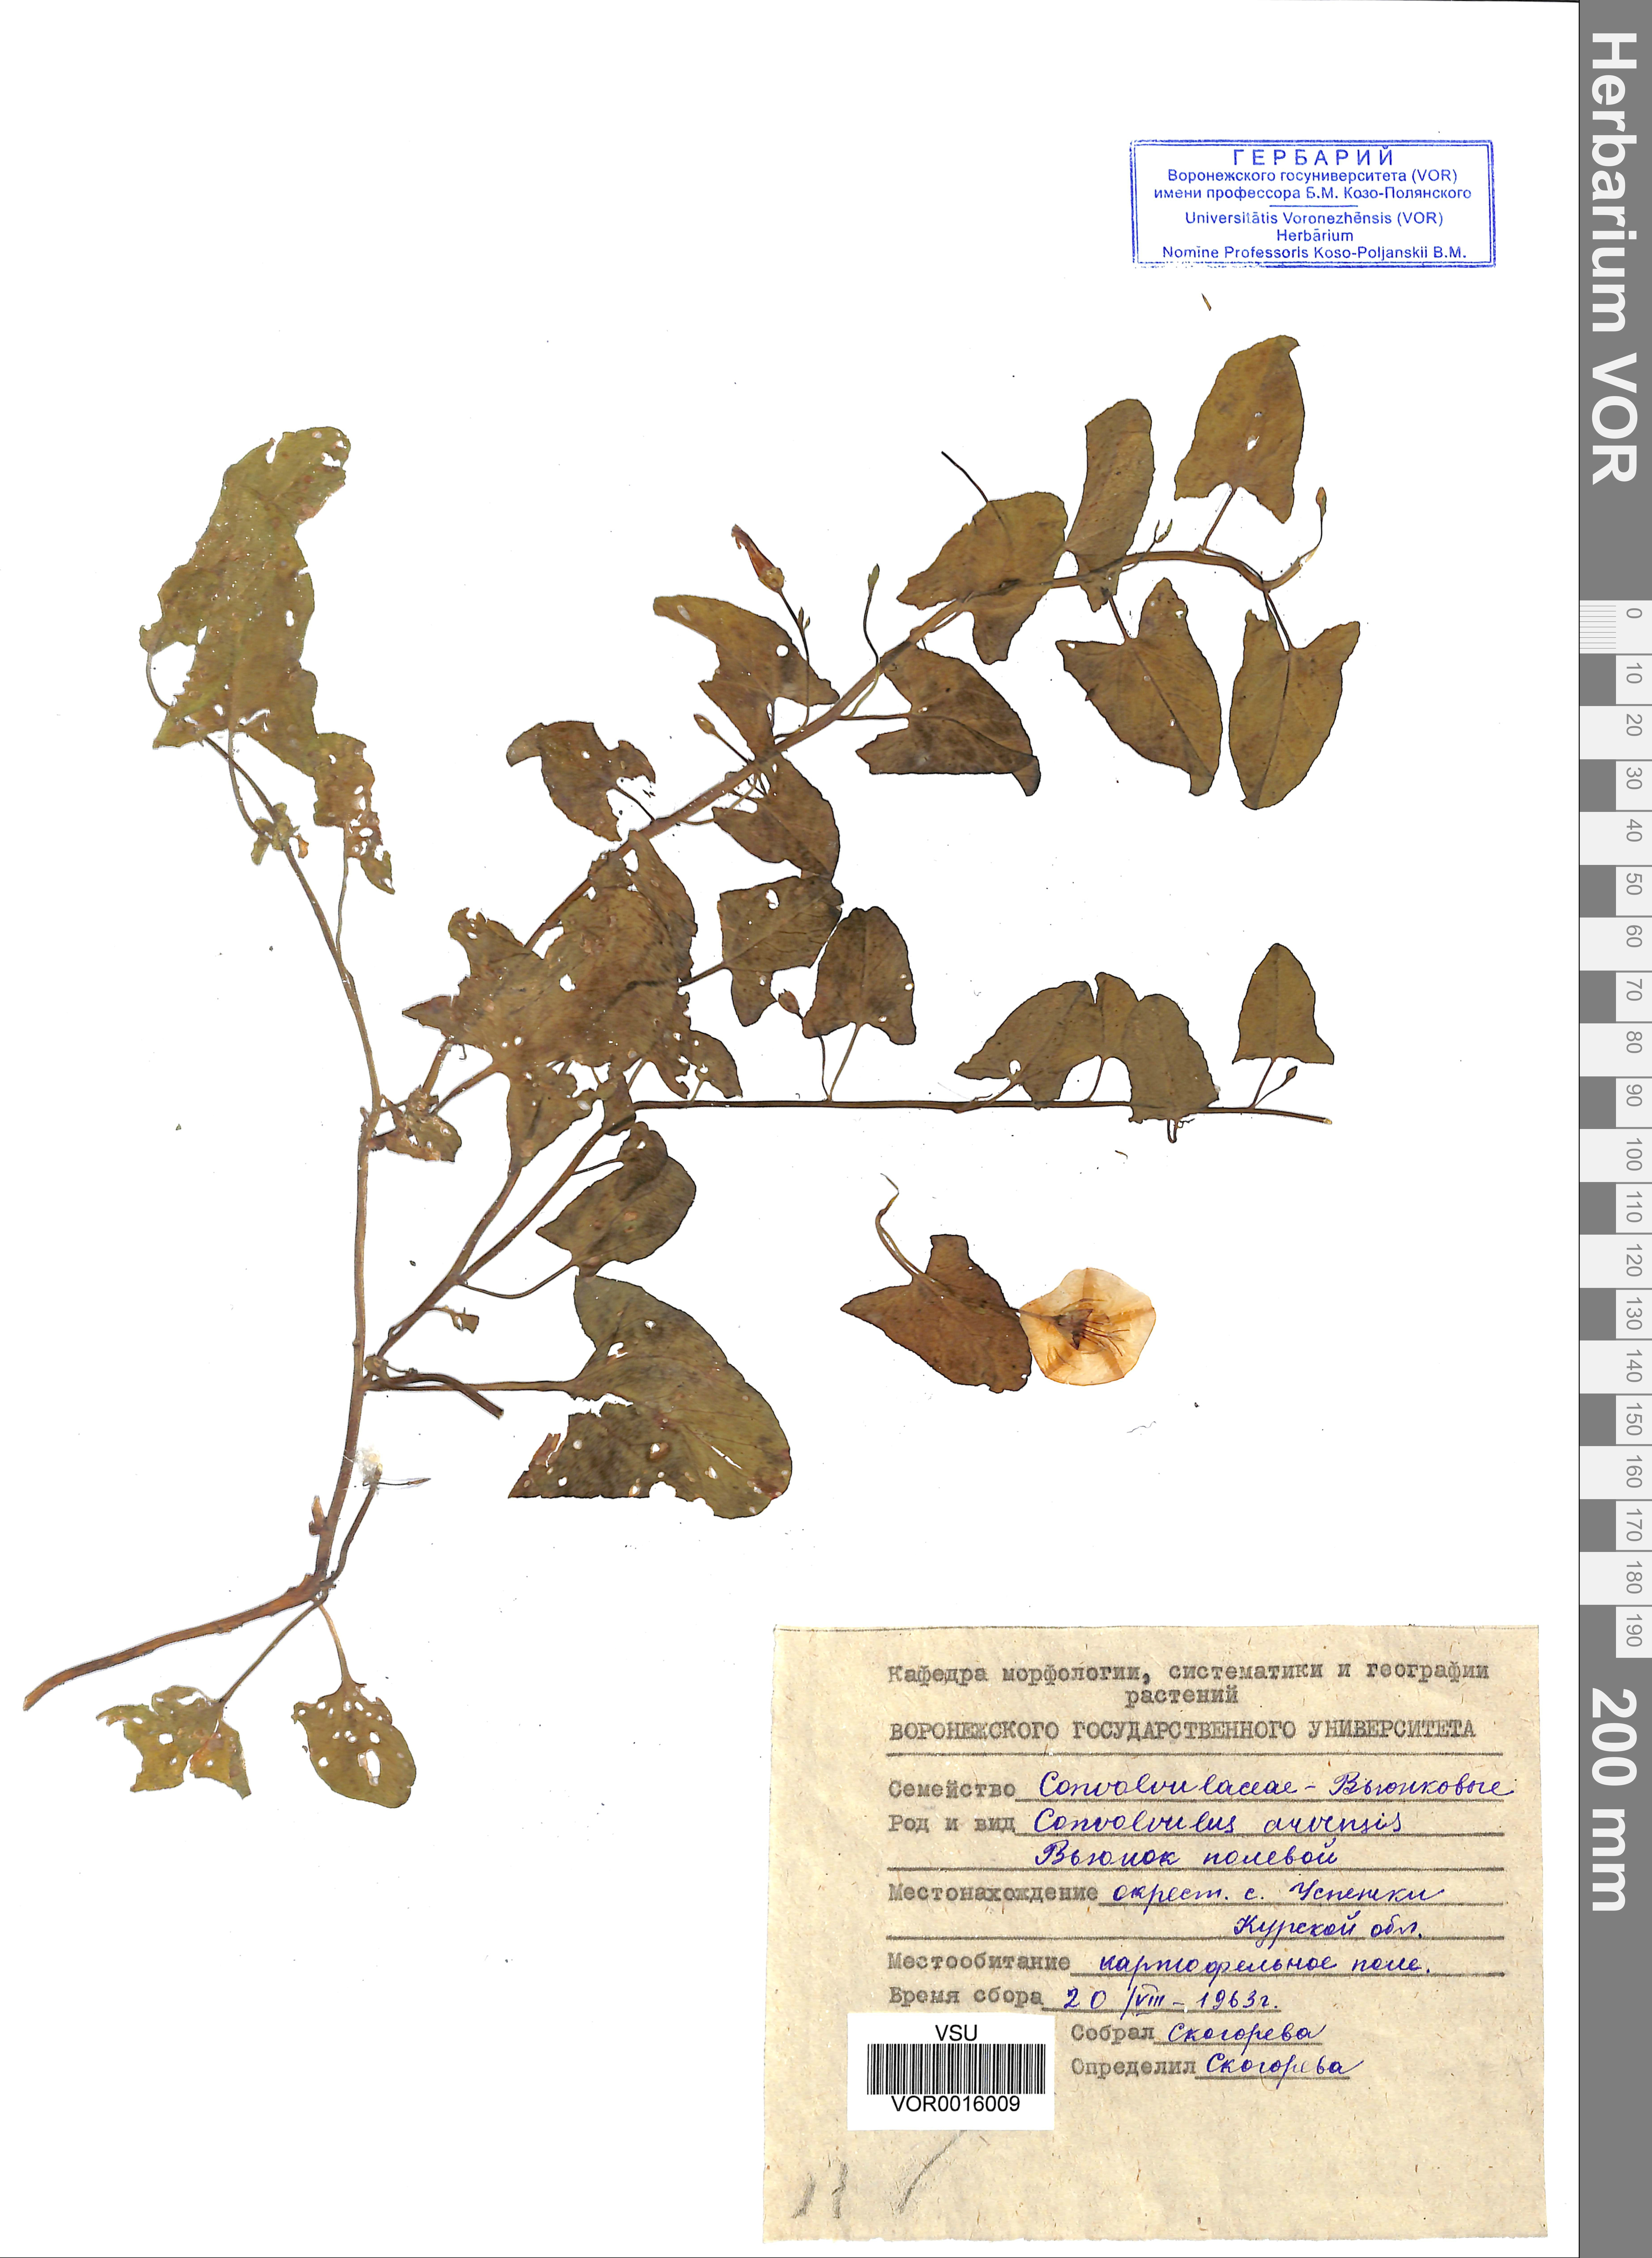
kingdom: Plantae
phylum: Tracheophyta
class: Magnoliopsida
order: Solanales
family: Convolvulaceae
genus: Convolvulus
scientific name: Convolvulus arvensis
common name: Field bindweed
